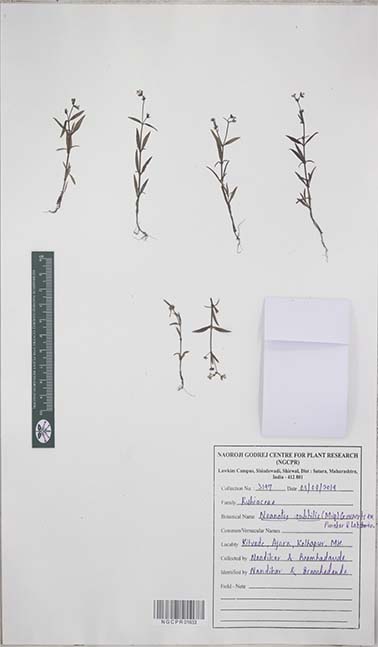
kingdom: Plantae
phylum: Tracheophyta
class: Magnoliopsida
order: Gentianales
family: Rubiaceae
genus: Neanotis
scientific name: Neanotis subtilis
